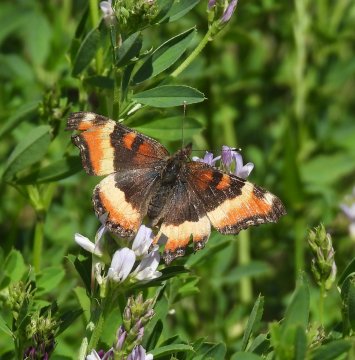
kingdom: Animalia
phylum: Arthropoda
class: Insecta
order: Lepidoptera
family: Nymphalidae
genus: Aglais
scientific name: Aglais milberti
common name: Milbert's Tortoiseshell
